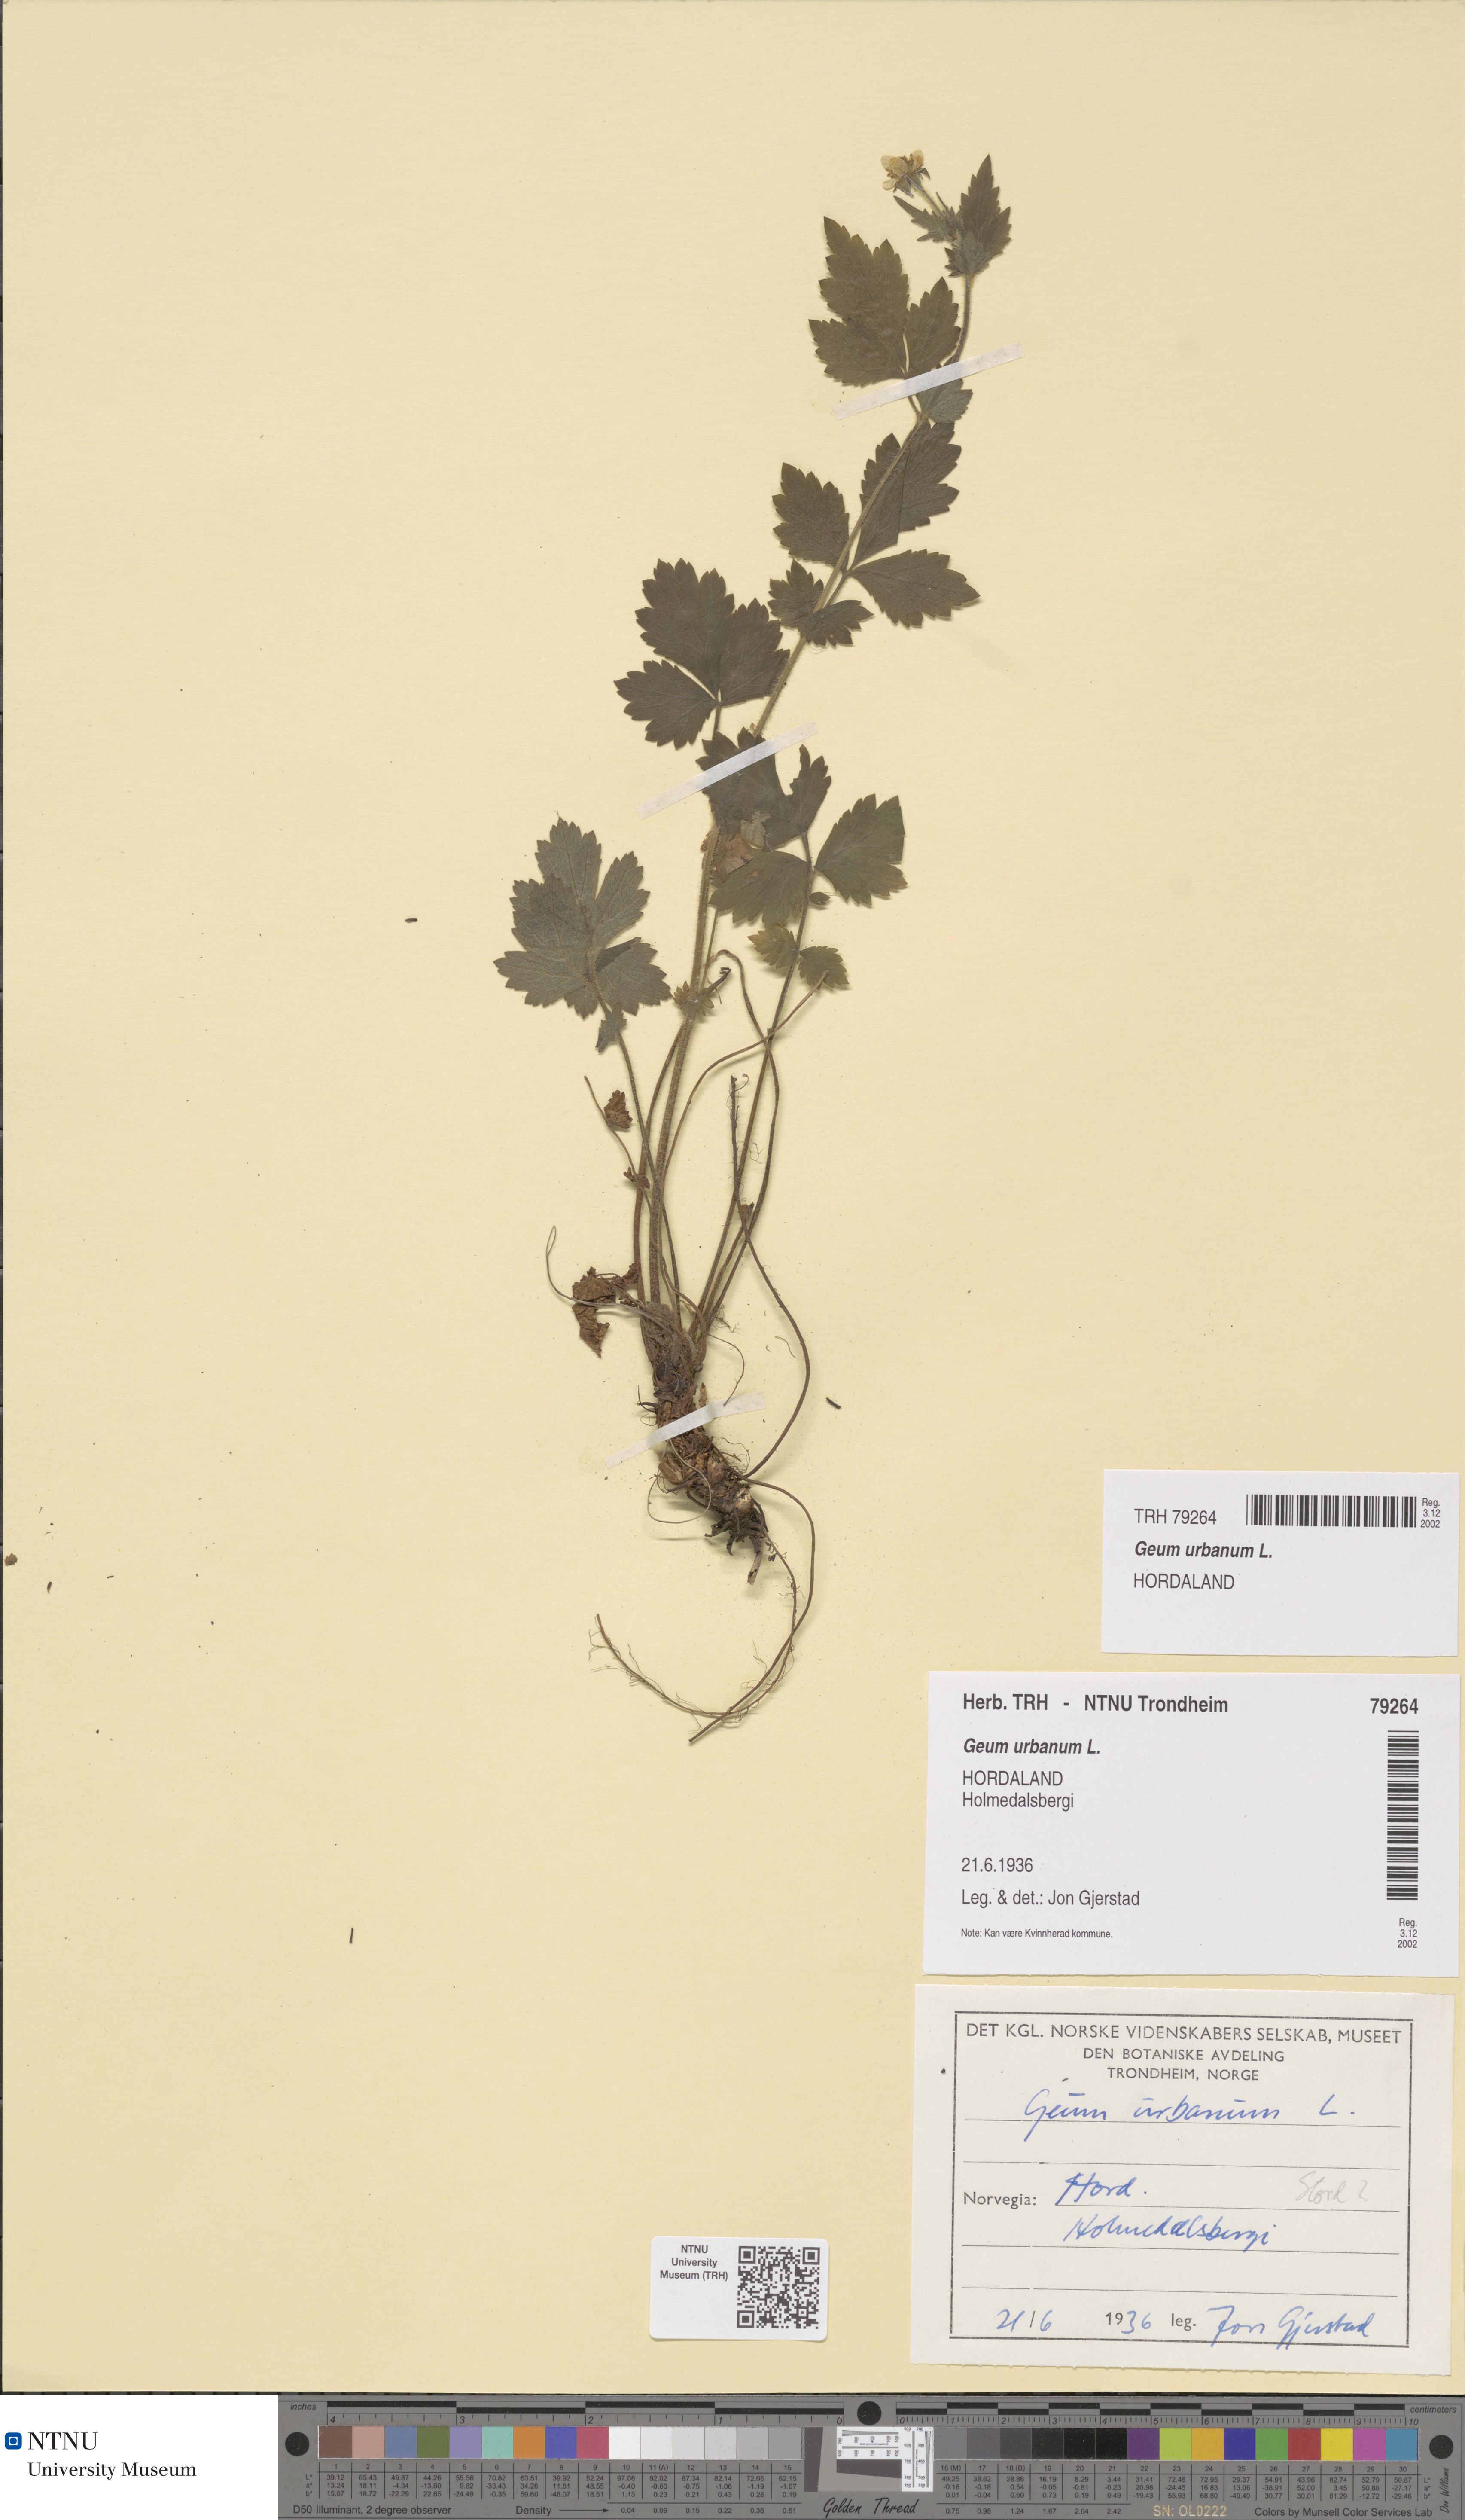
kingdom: Plantae
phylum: Tracheophyta
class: Magnoliopsida
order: Rosales
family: Rosaceae
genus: Geum
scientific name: Geum urbanum
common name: Wood avens
